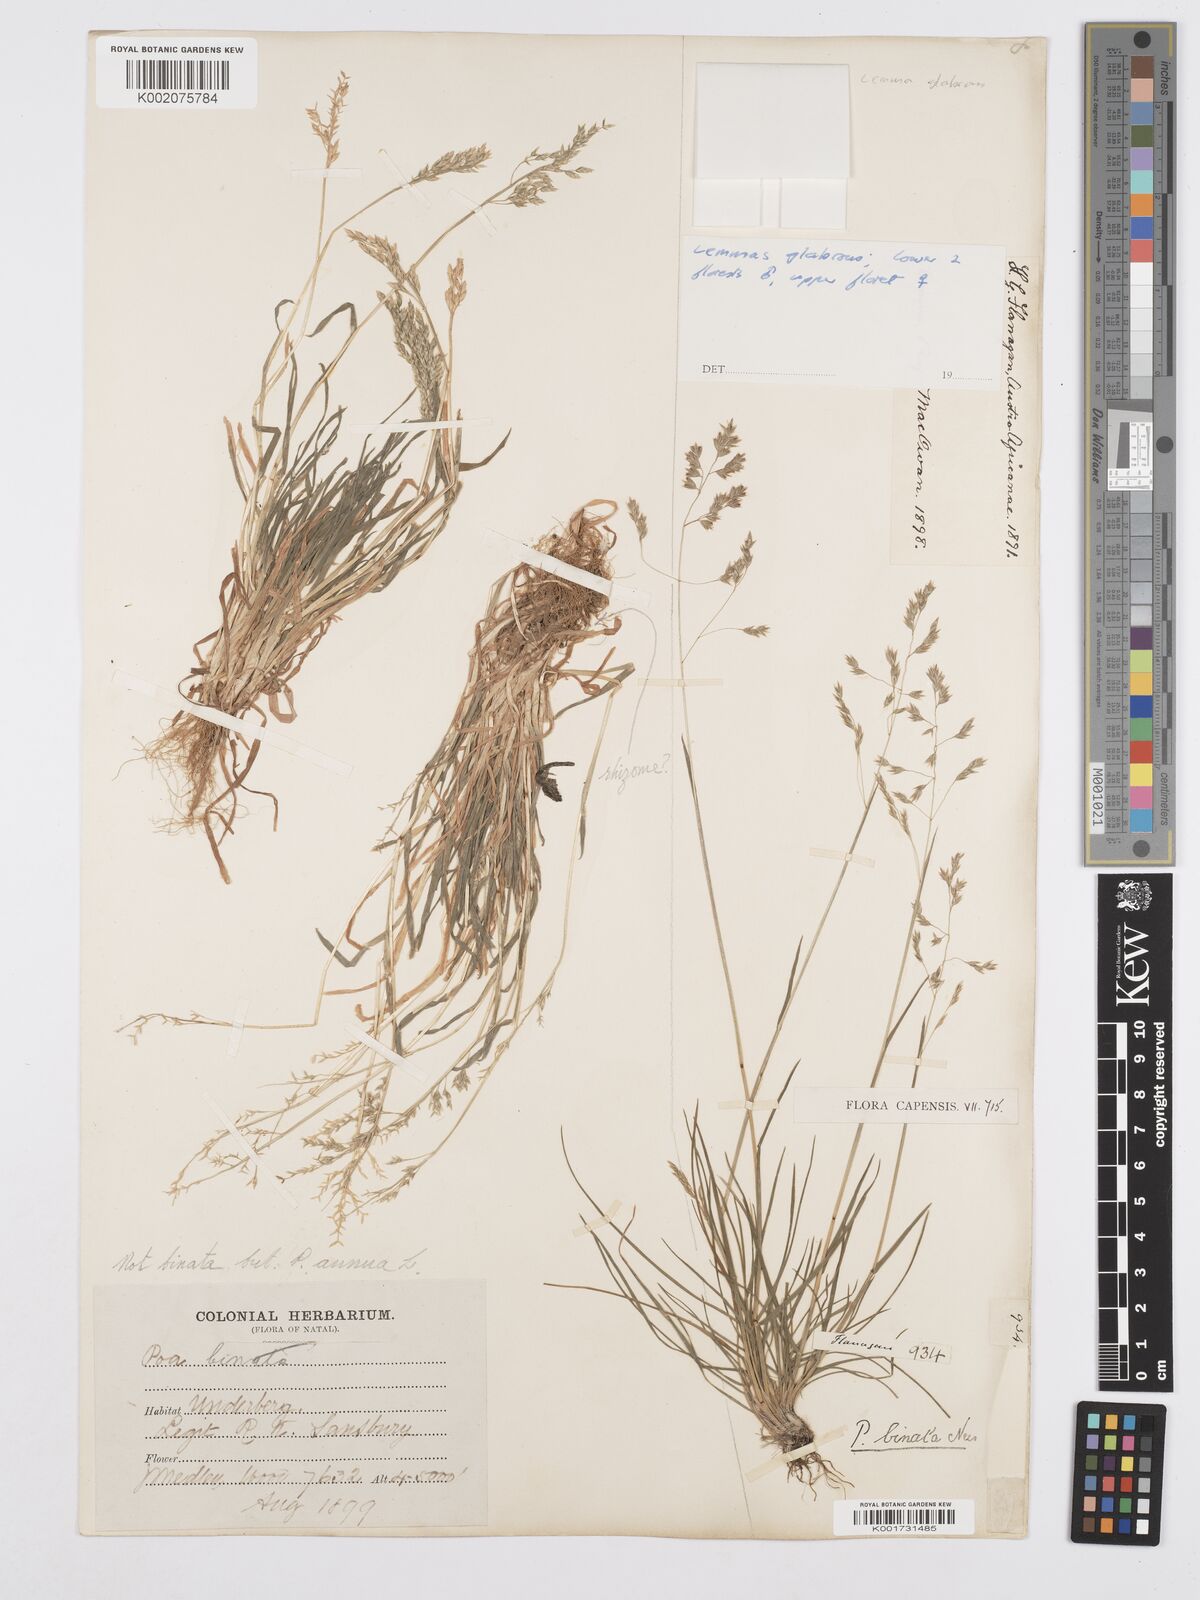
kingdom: Plantae
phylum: Tracheophyta
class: Liliopsida
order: Poales
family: Poaceae
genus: Poa
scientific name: Poa binata
